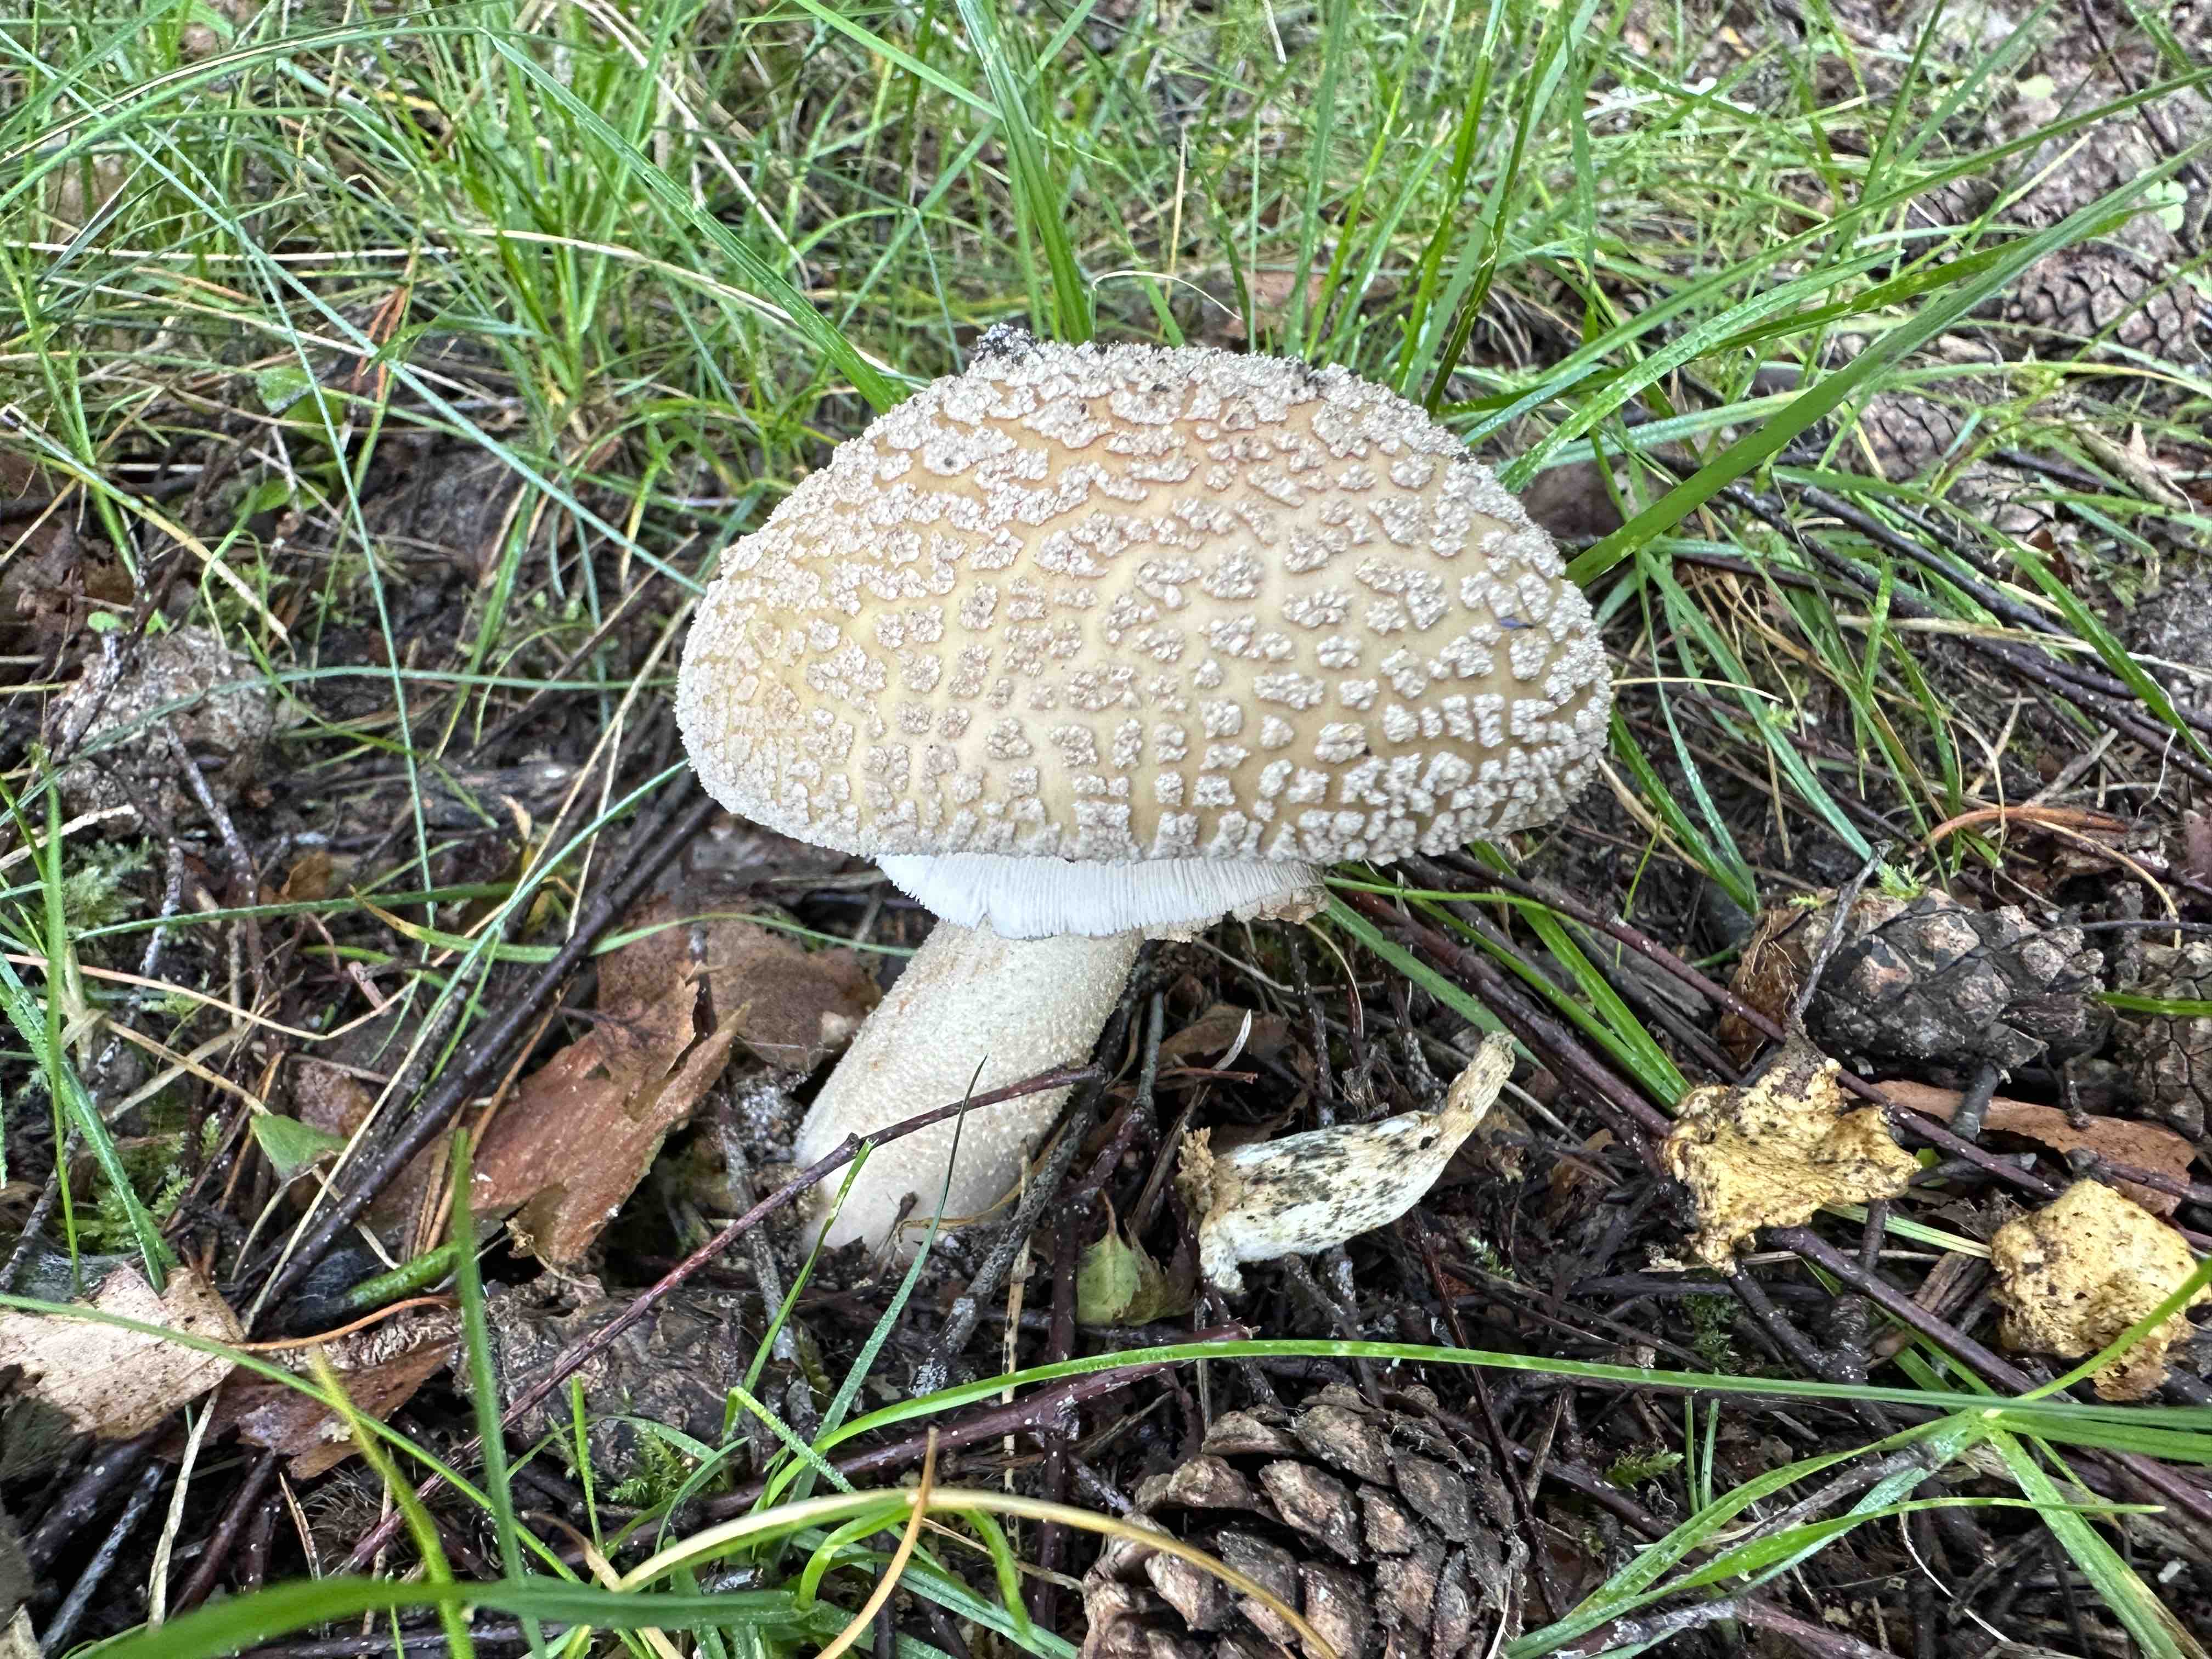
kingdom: Fungi
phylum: Basidiomycota
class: Agaricomycetes
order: Agaricales
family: Amanitaceae
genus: Amanita
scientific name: Amanita rubescens
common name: rødmende fluesvamp
